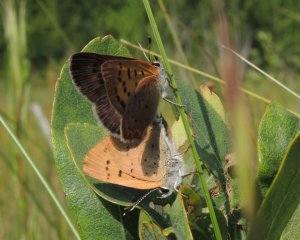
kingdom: Animalia
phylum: Arthropoda
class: Insecta
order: Lepidoptera
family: Lycaenidae
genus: Epidemia
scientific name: Epidemia dorcas
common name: Dorcas Copper
